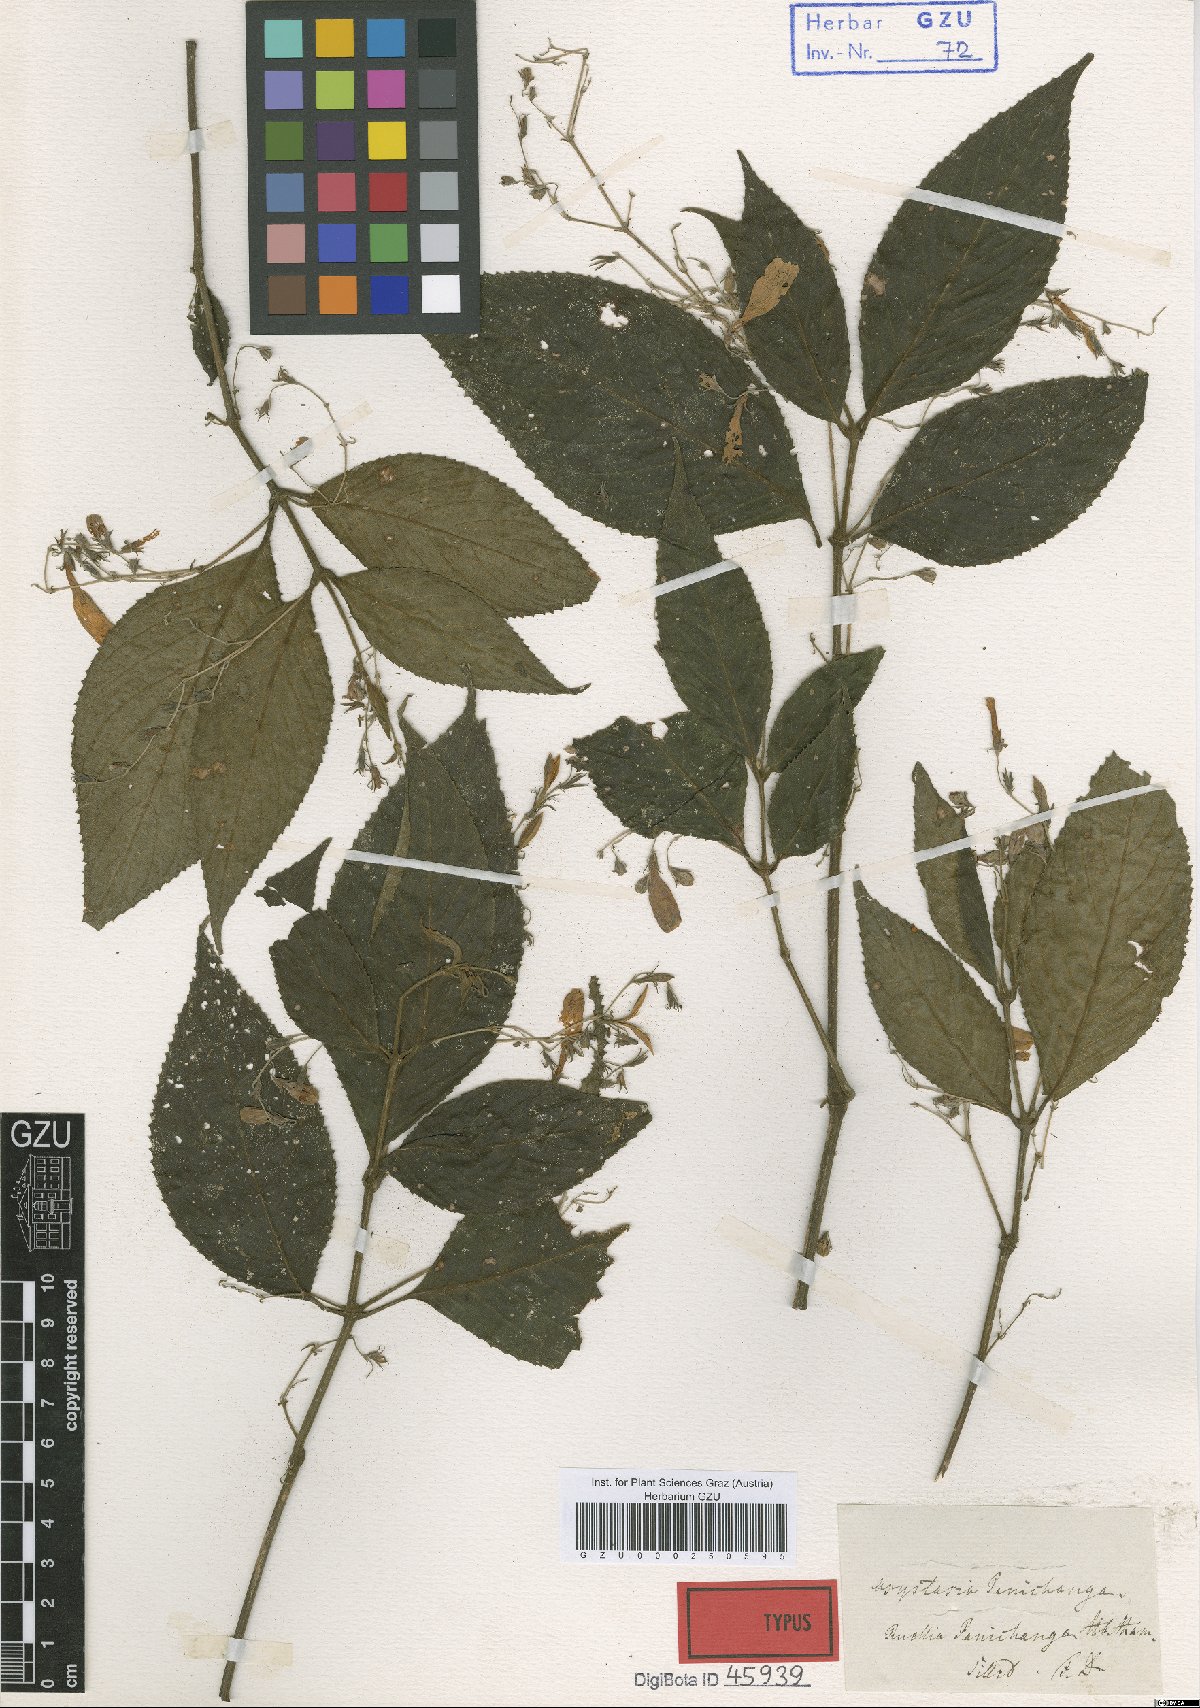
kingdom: Plantae
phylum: Tracheophyta
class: Magnoliopsida
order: Lamiales
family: Acanthaceae
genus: Strobilanthes
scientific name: Strobilanthes panichanga
